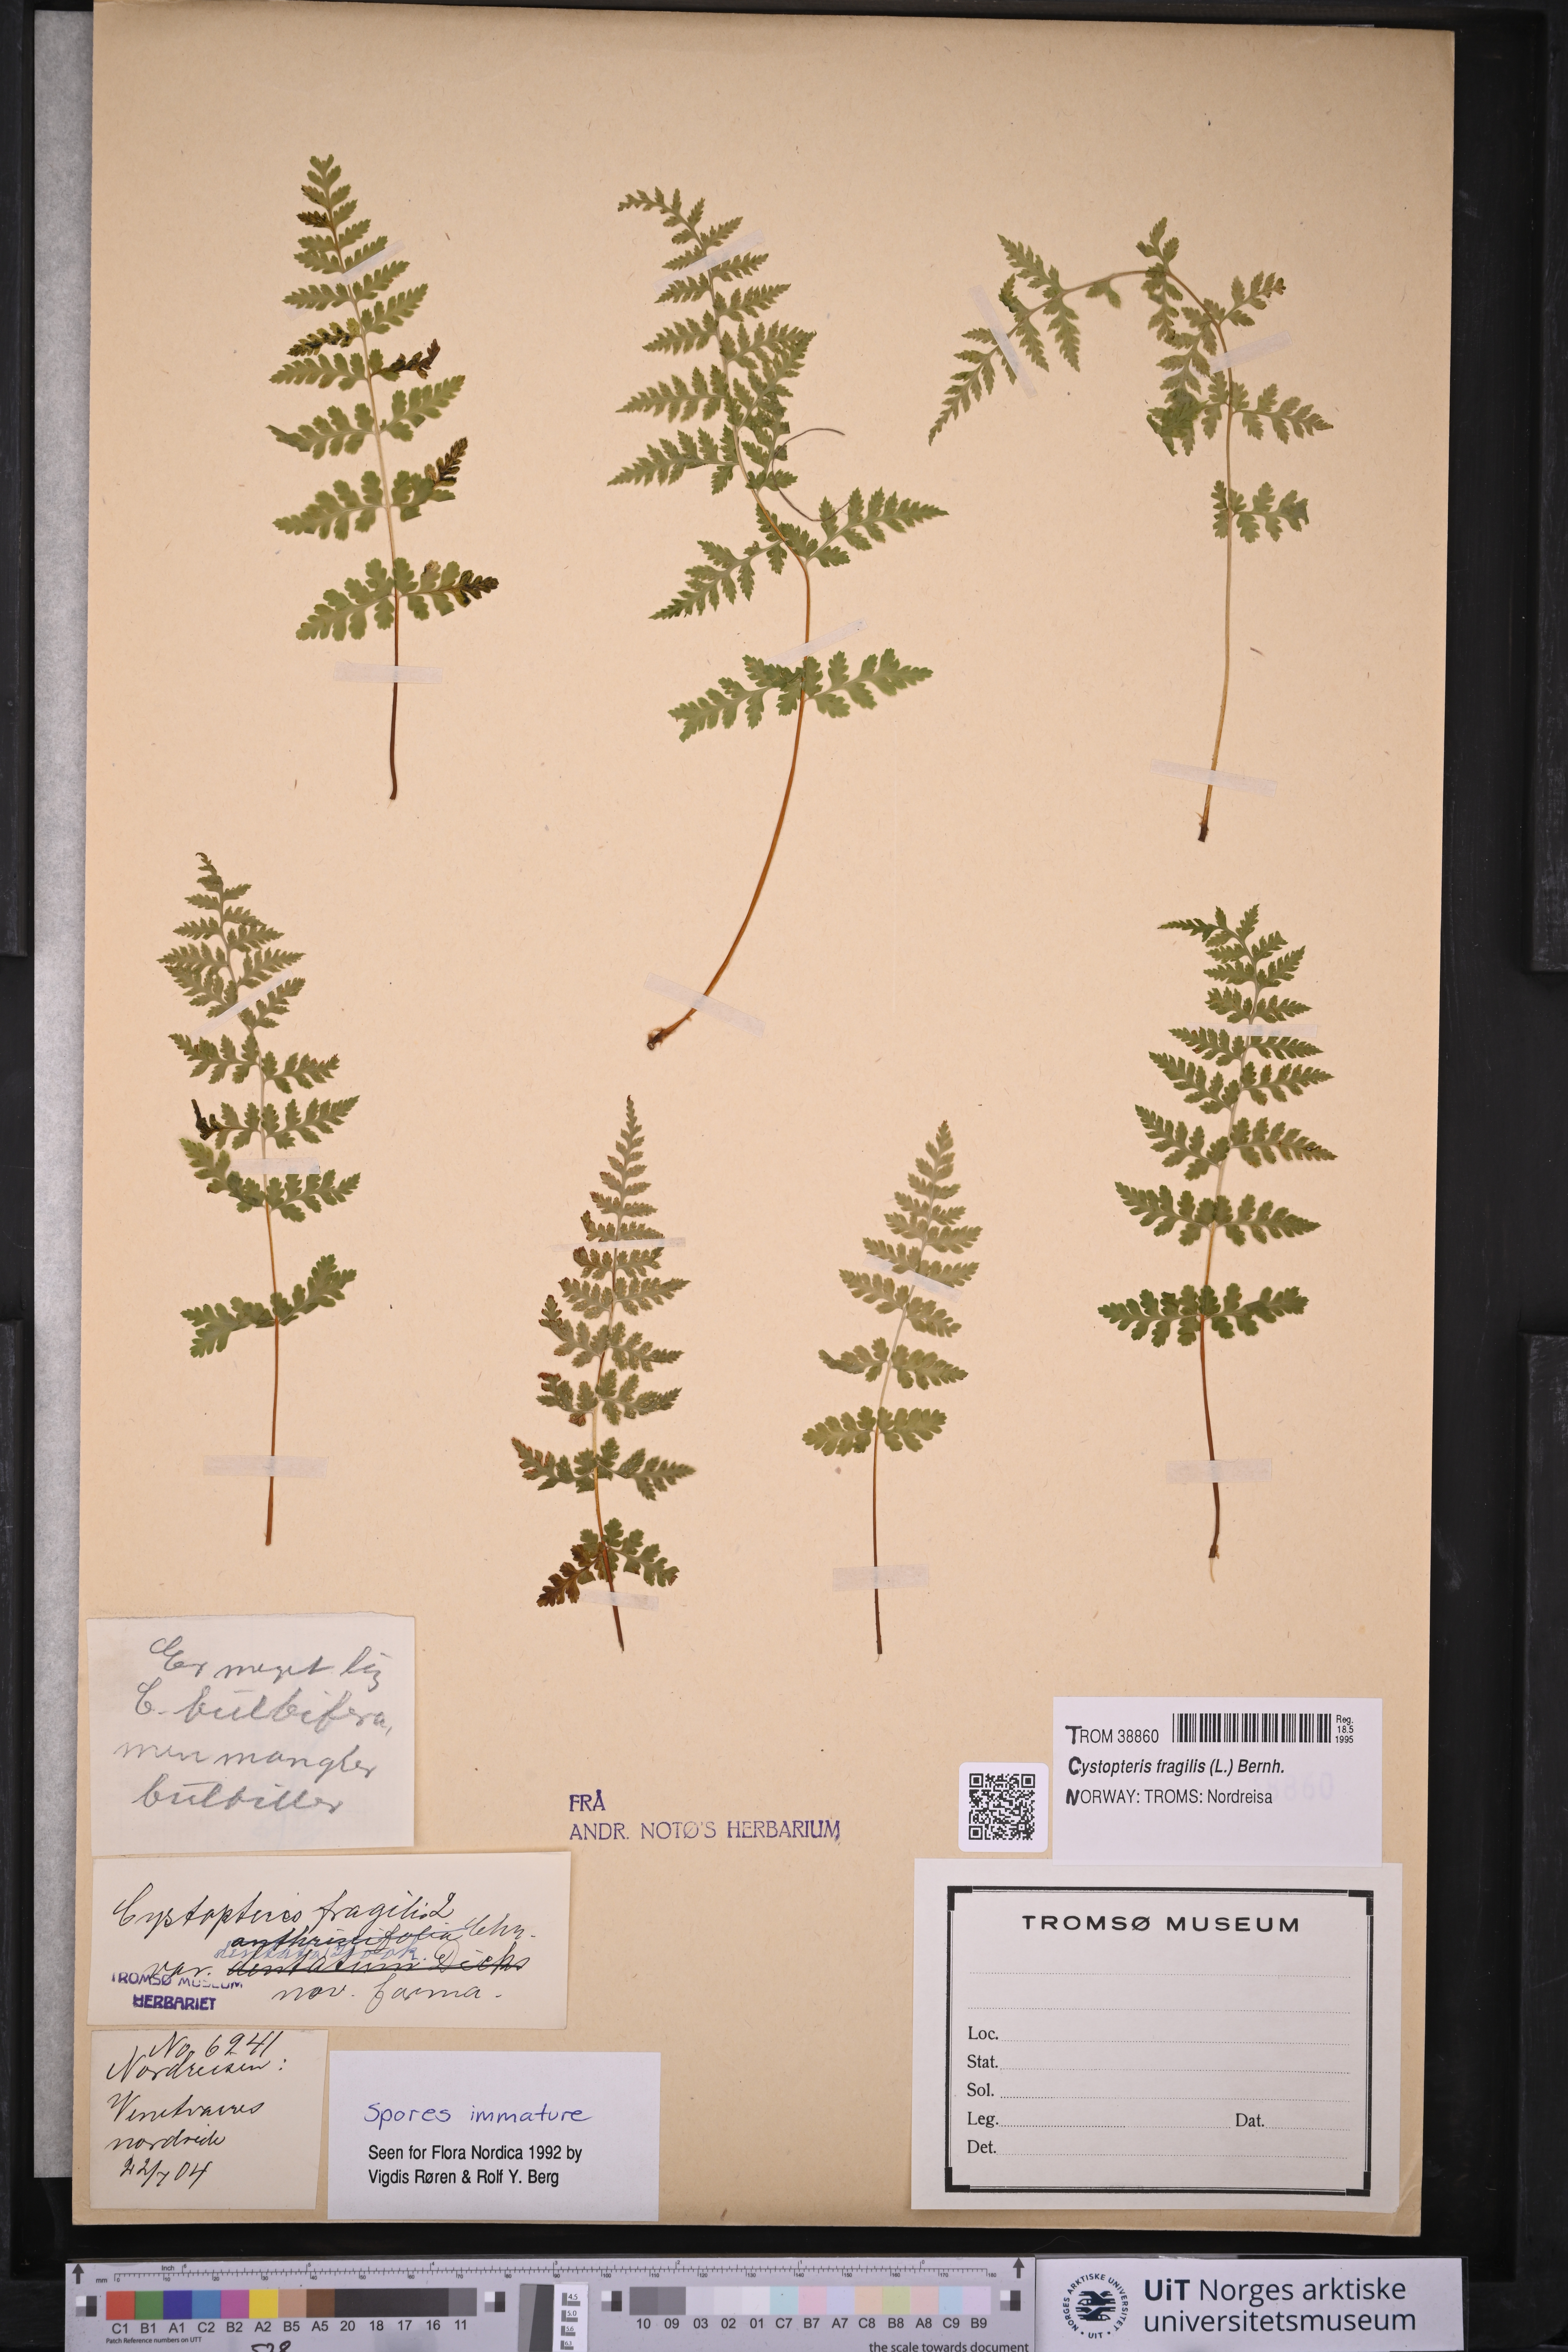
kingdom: Plantae
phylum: Tracheophyta
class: Polypodiopsida
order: Polypodiales
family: Cystopteridaceae
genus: Cystopteris
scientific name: Cystopteris fragilis
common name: Brittle bladder fern
